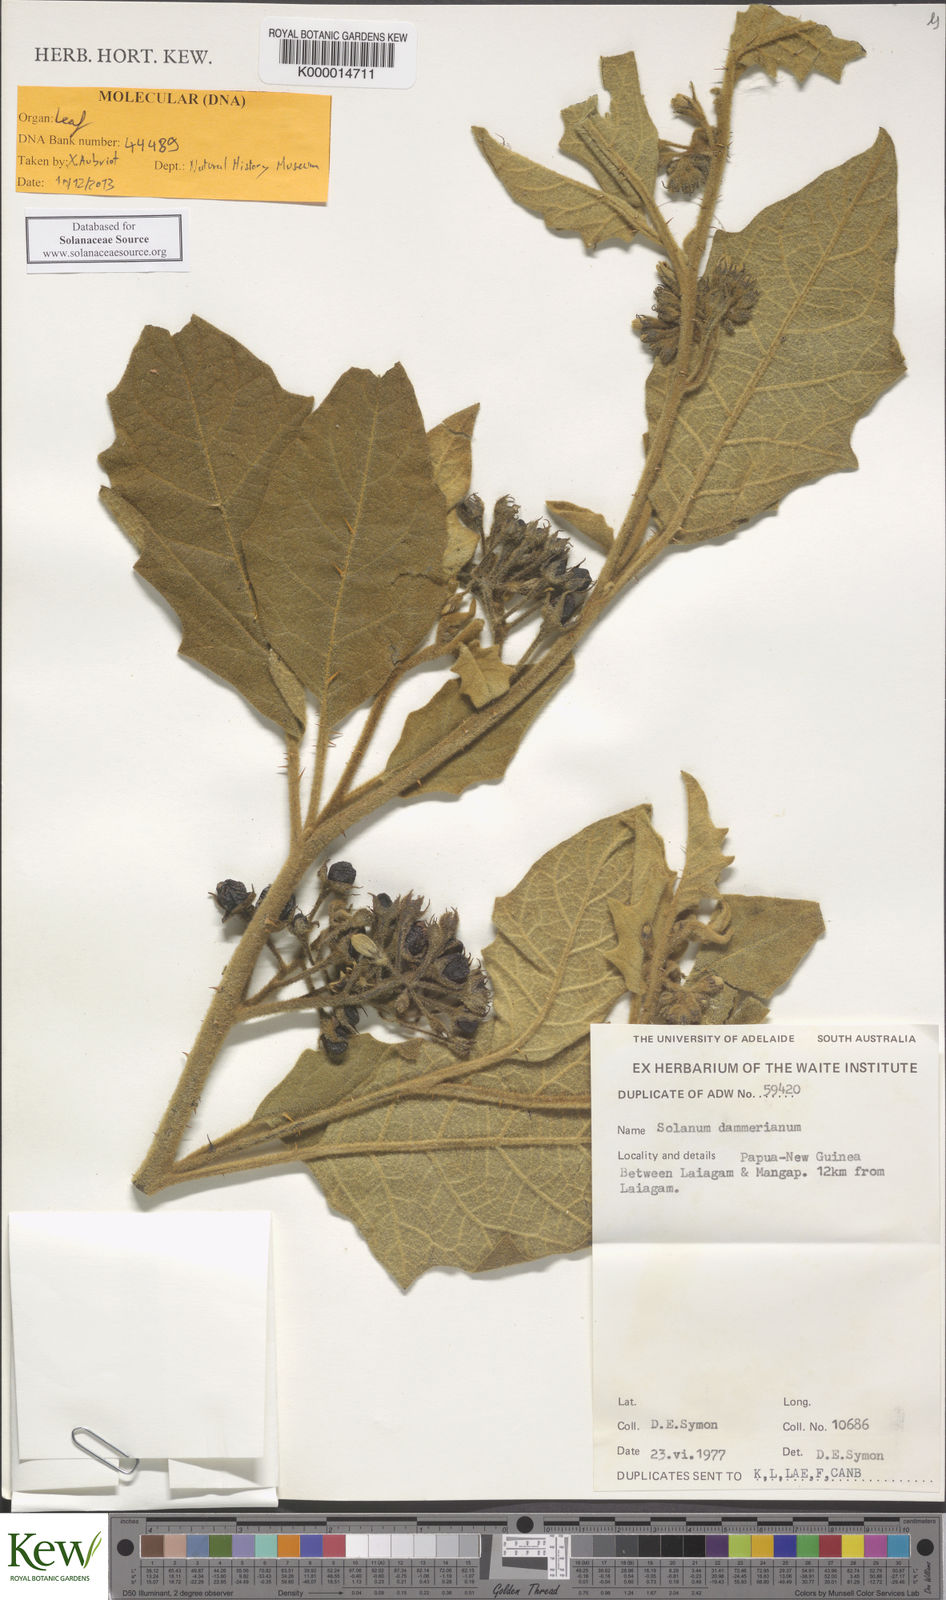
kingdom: Plantae
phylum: Tracheophyta
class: Magnoliopsida
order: Solanales
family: Solanaceae
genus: Solanum
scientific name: Solanum dammerianum
